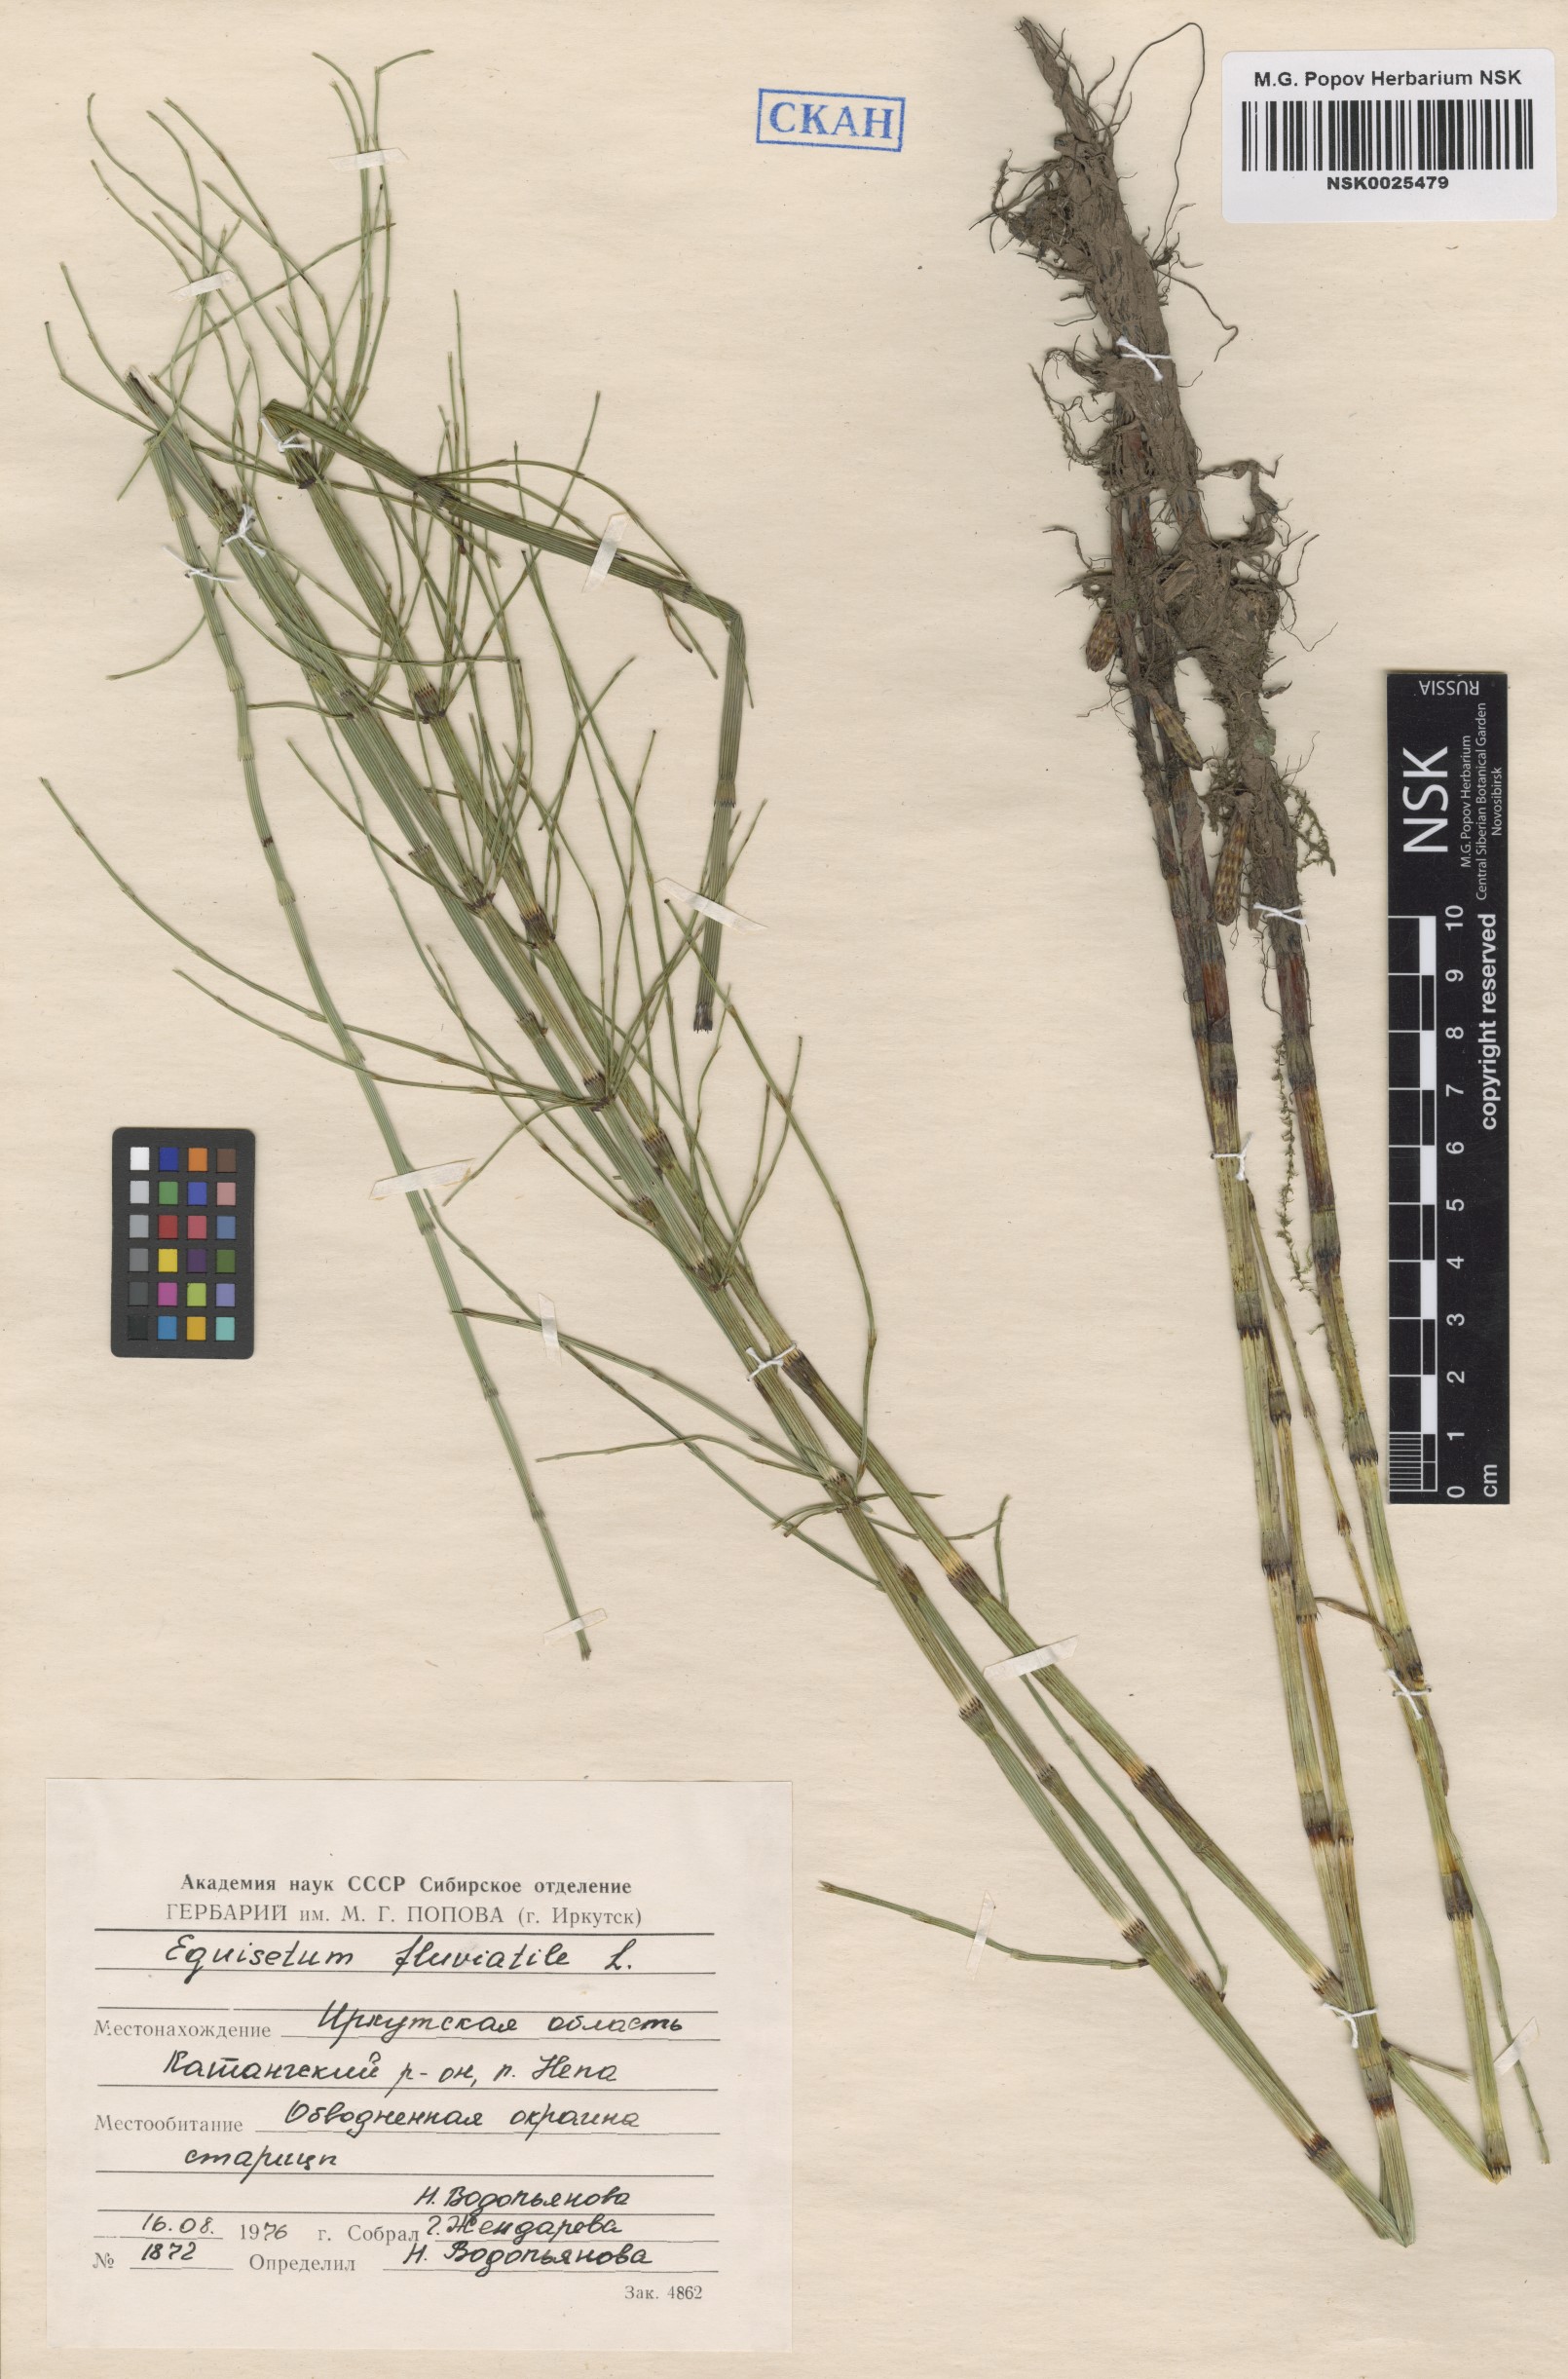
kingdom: Plantae
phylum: Tracheophyta
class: Polypodiopsida
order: Equisetales
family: Equisetaceae
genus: Equisetum
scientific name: Equisetum fluviatile
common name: Water horsetail
